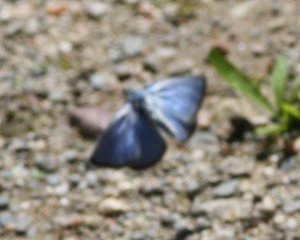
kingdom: Animalia
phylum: Arthropoda
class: Insecta
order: Lepidoptera
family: Lycaenidae
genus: Glaucopsyche
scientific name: Glaucopsyche lygdamus
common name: Silvery Blue
